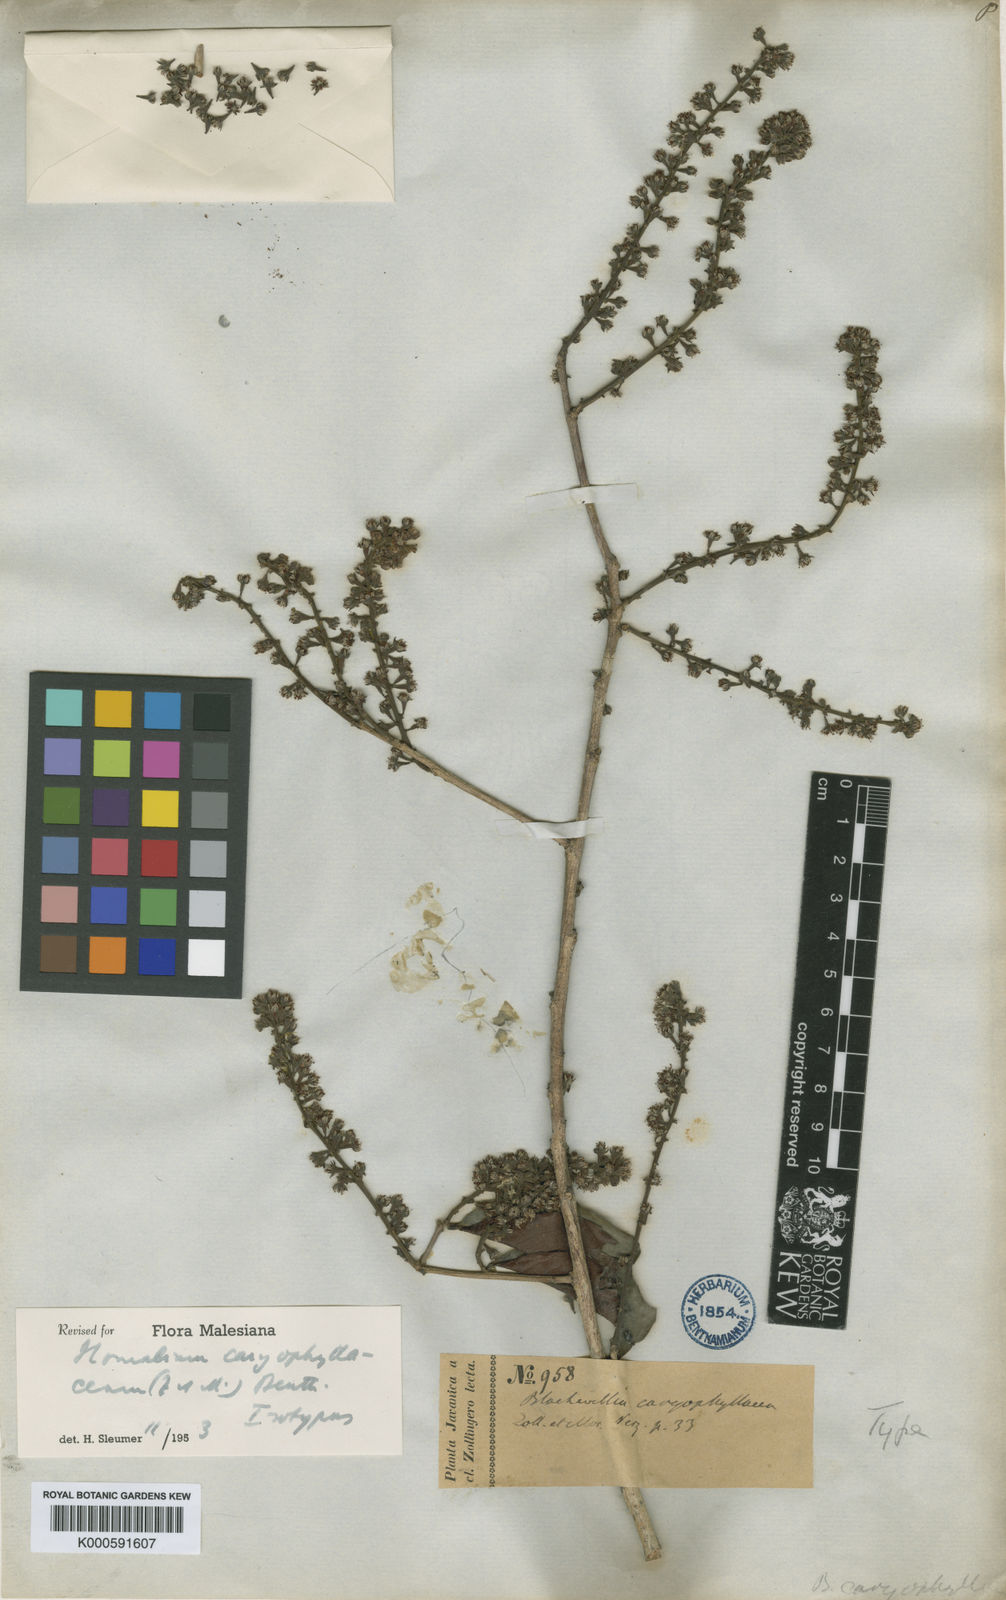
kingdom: Plantae
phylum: Tracheophyta
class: Magnoliopsida
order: Malpighiales
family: Salicaceae
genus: Homalium
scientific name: Homalium caryophyllaceum
